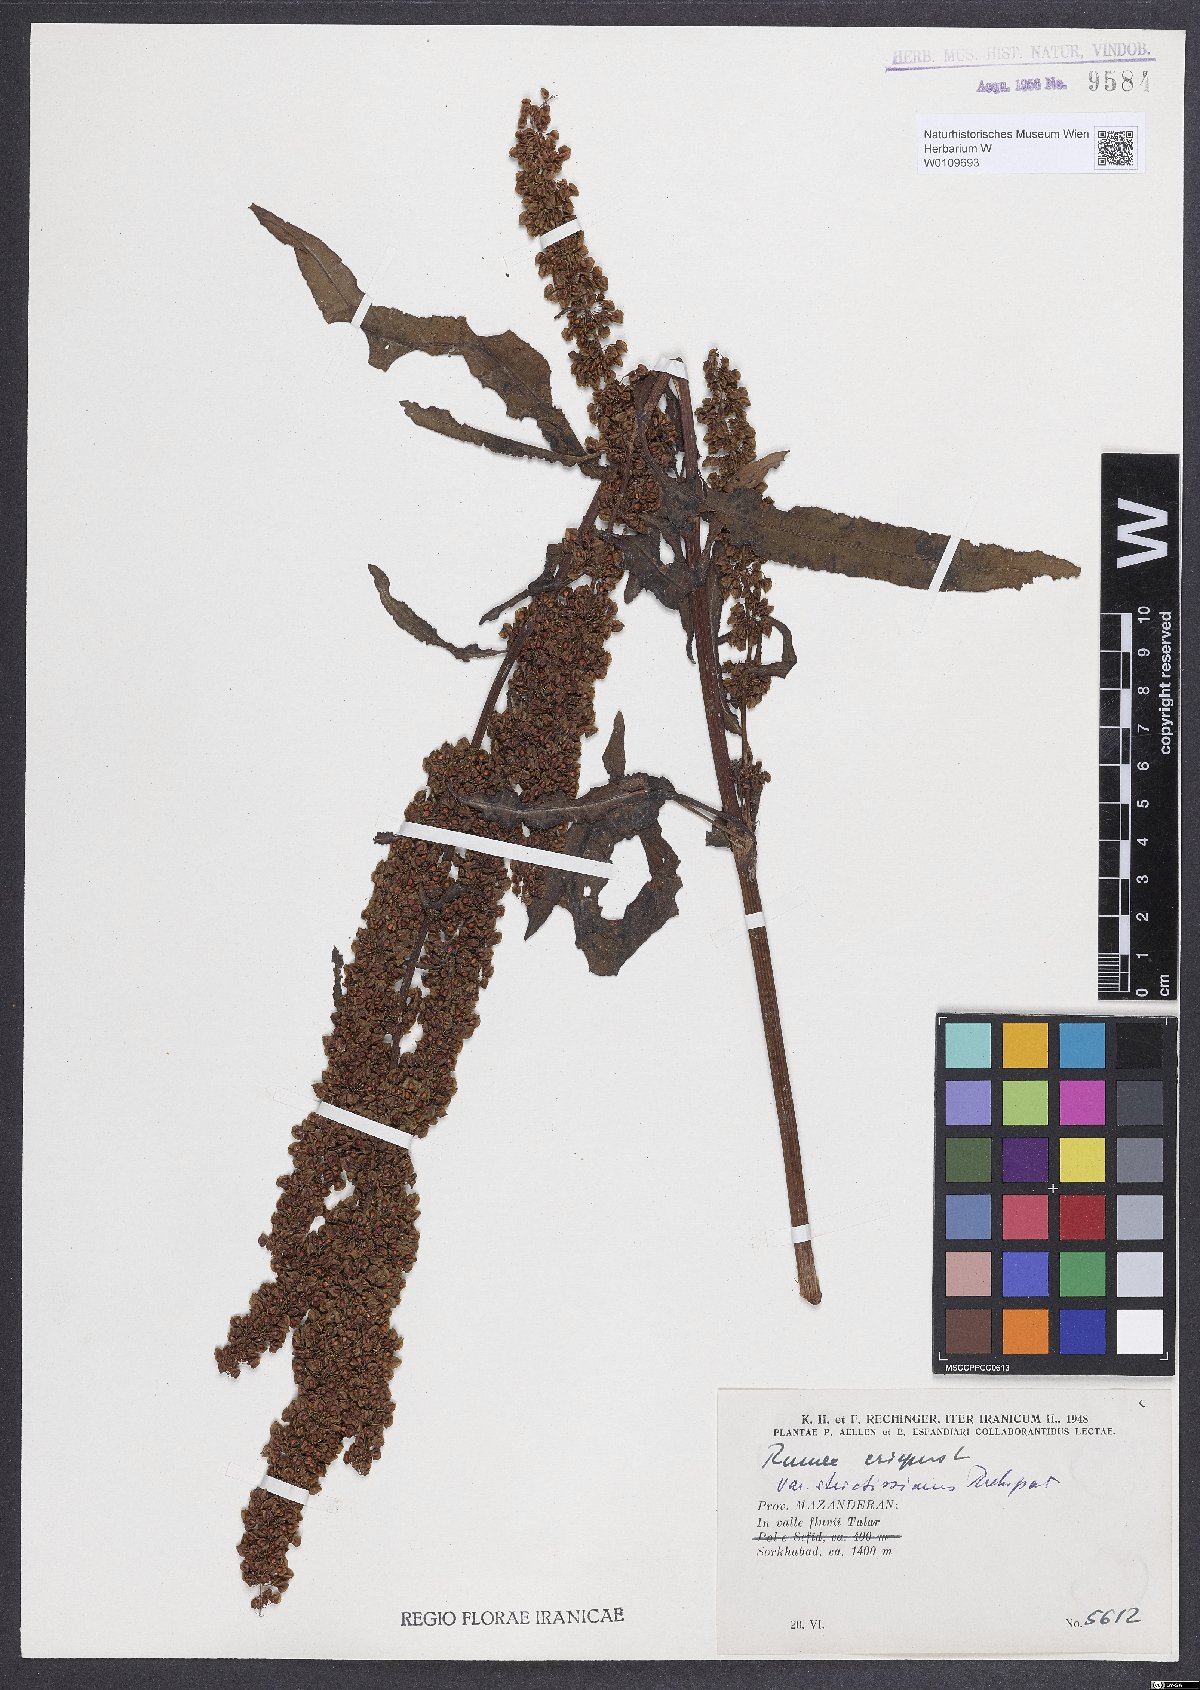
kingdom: Plantae
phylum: Tracheophyta
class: Magnoliopsida
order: Caryophyllales
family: Polygonaceae
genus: Rumex
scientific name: Rumex crispus
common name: Curled dock
